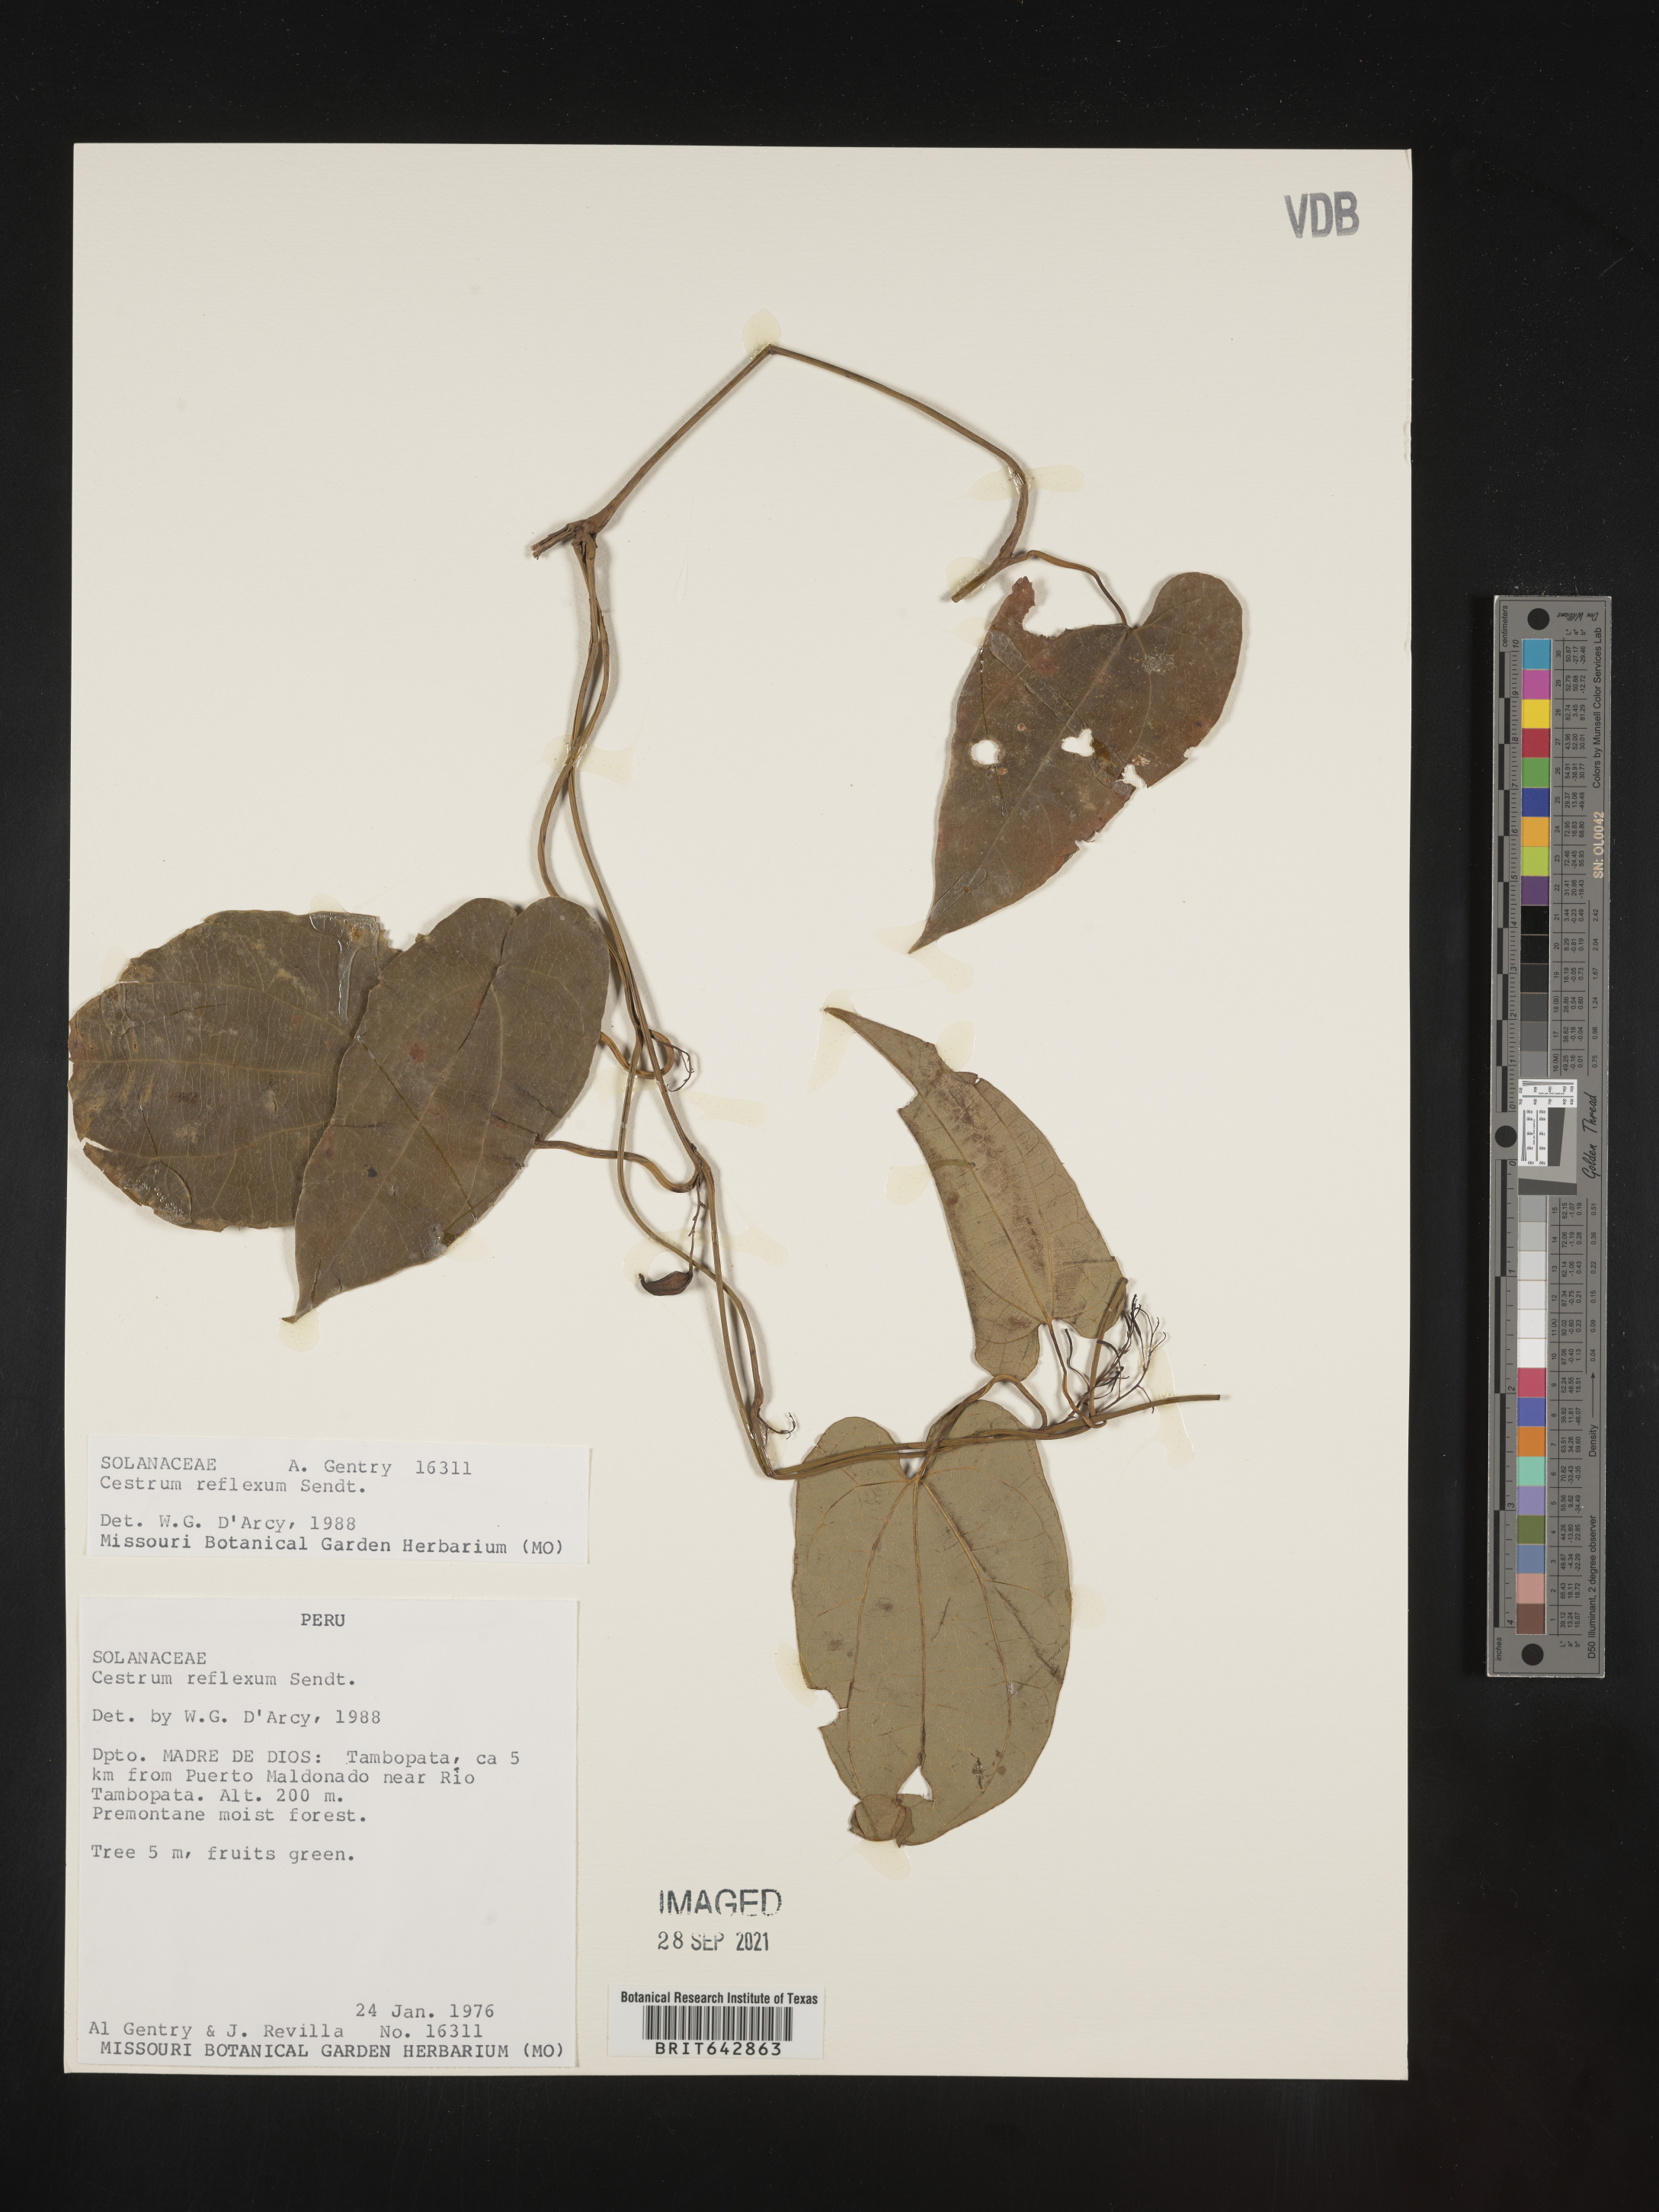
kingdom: Plantae
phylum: Tracheophyta
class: Magnoliopsida
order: Solanales
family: Solanaceae
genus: Cestrum
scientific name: Cestrum
